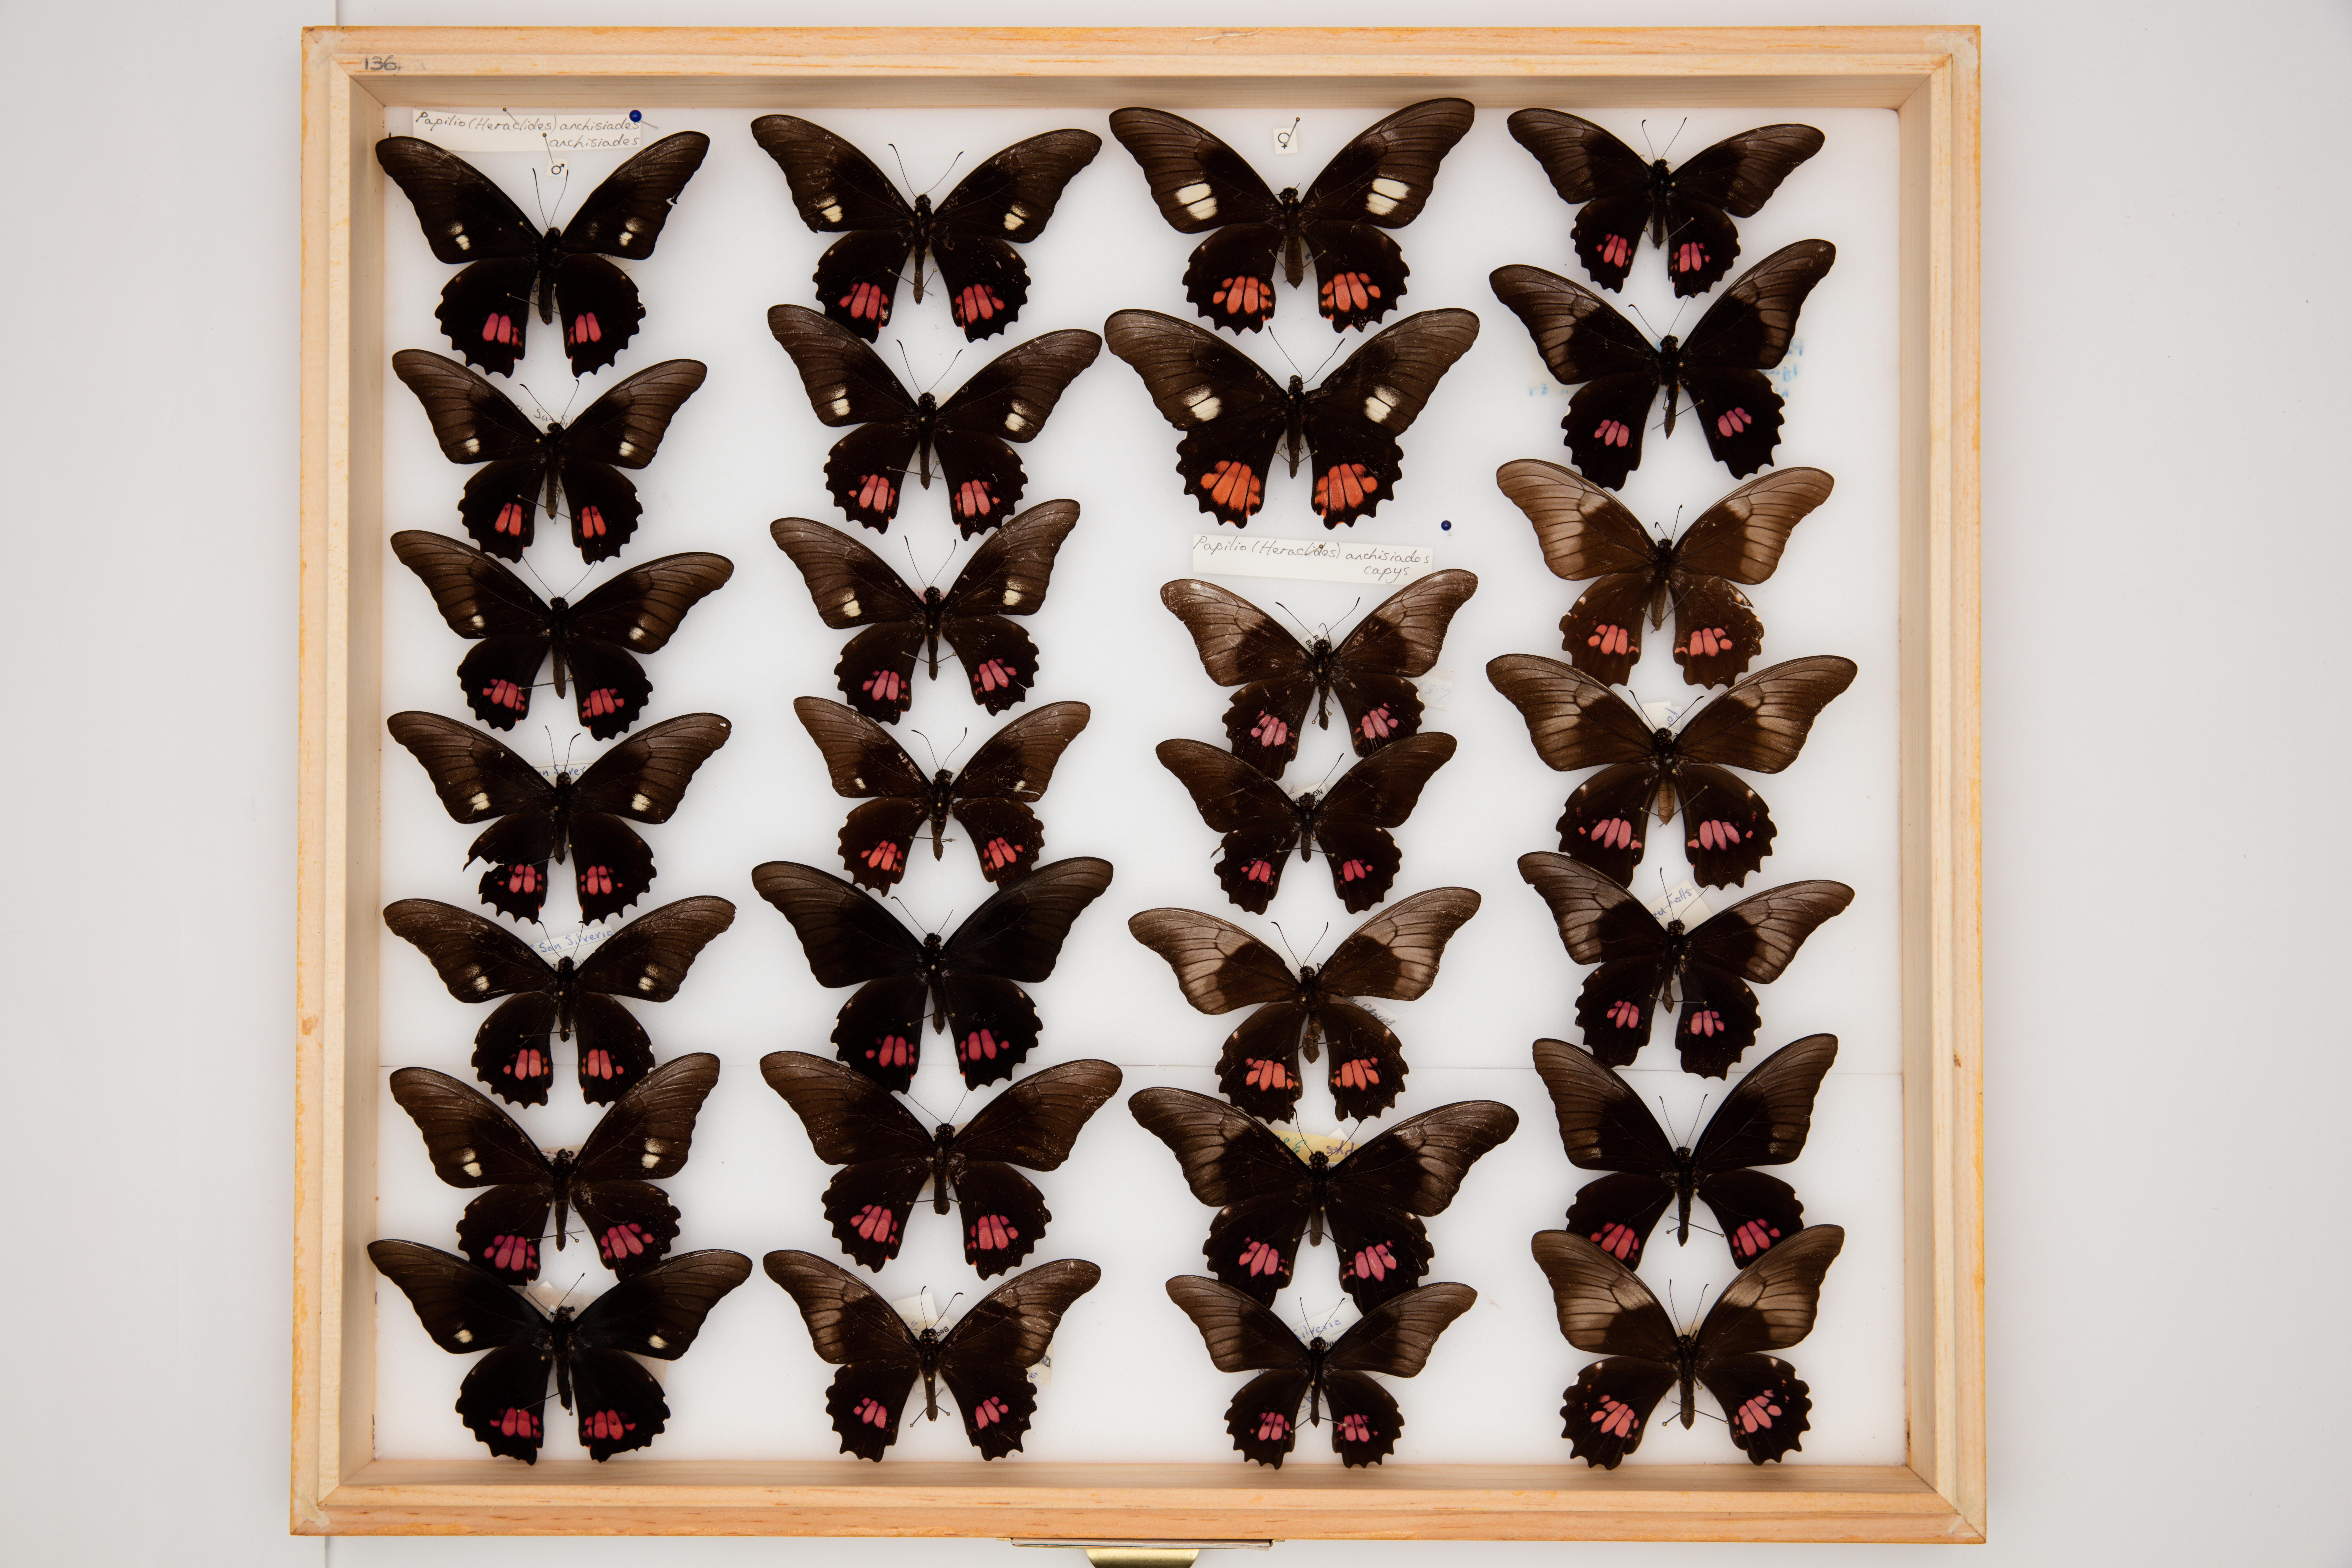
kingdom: Animalia
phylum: Arthropoda
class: Insecta
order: Lepidoptera
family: Papilionidae
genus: Papilio
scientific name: Papilio anchisiades
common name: Idaes swallowtail
